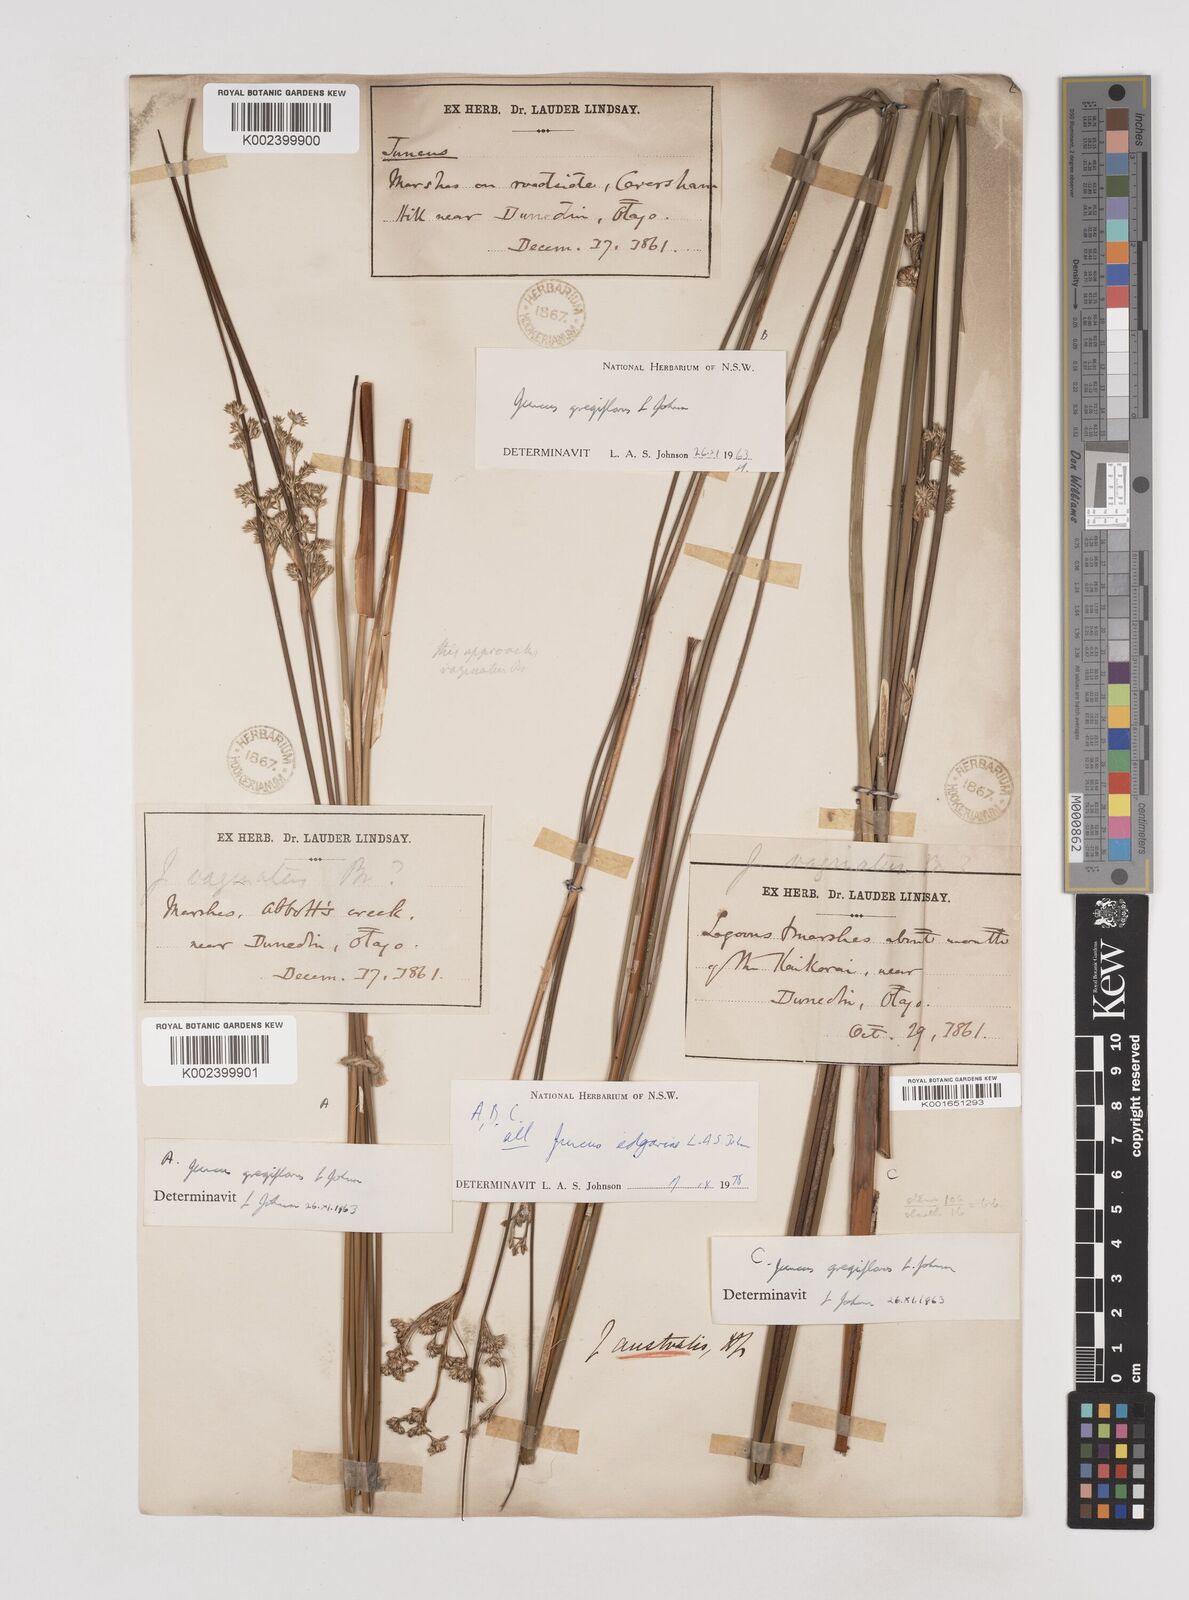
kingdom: Plantae
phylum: Tracheophyta
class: Liliopsida
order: Poales
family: Juncaceae
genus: Juncus
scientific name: Juncus edgariae
